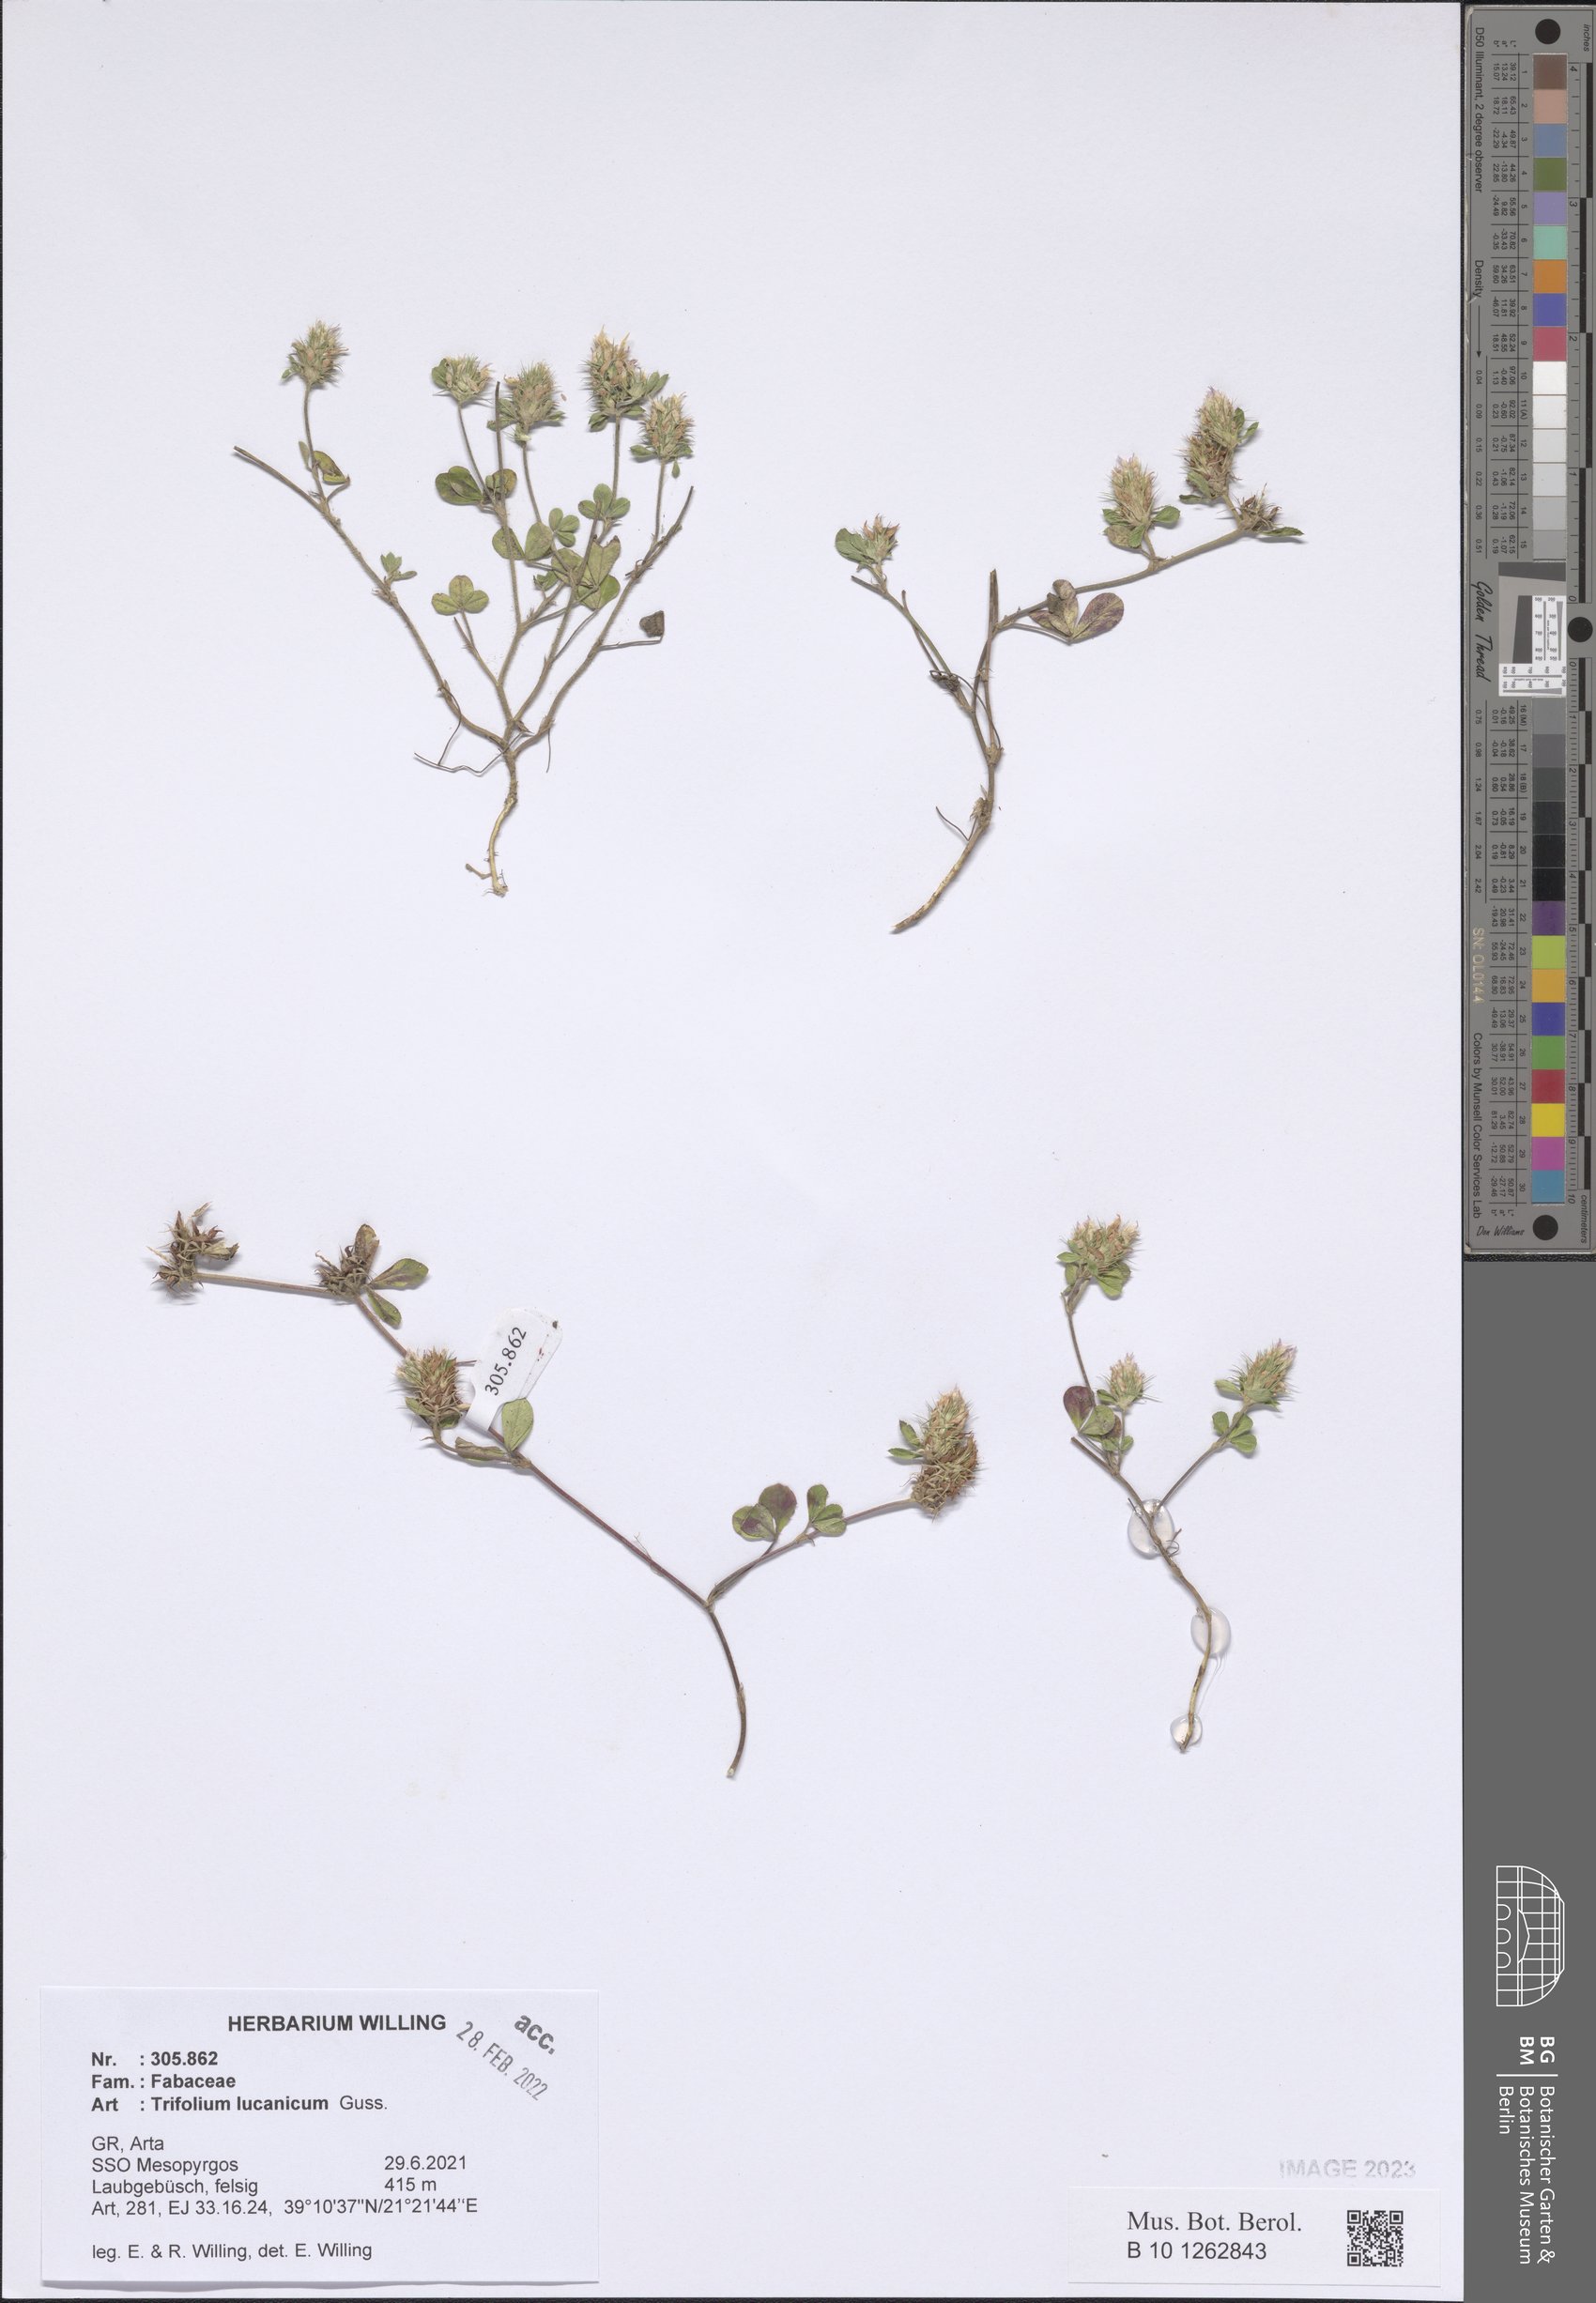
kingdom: Plantae
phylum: Tracheophyta
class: Magnoliopsida
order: Fabales
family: Fabaceae
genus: Trifolium
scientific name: Trifolium lucanicum
